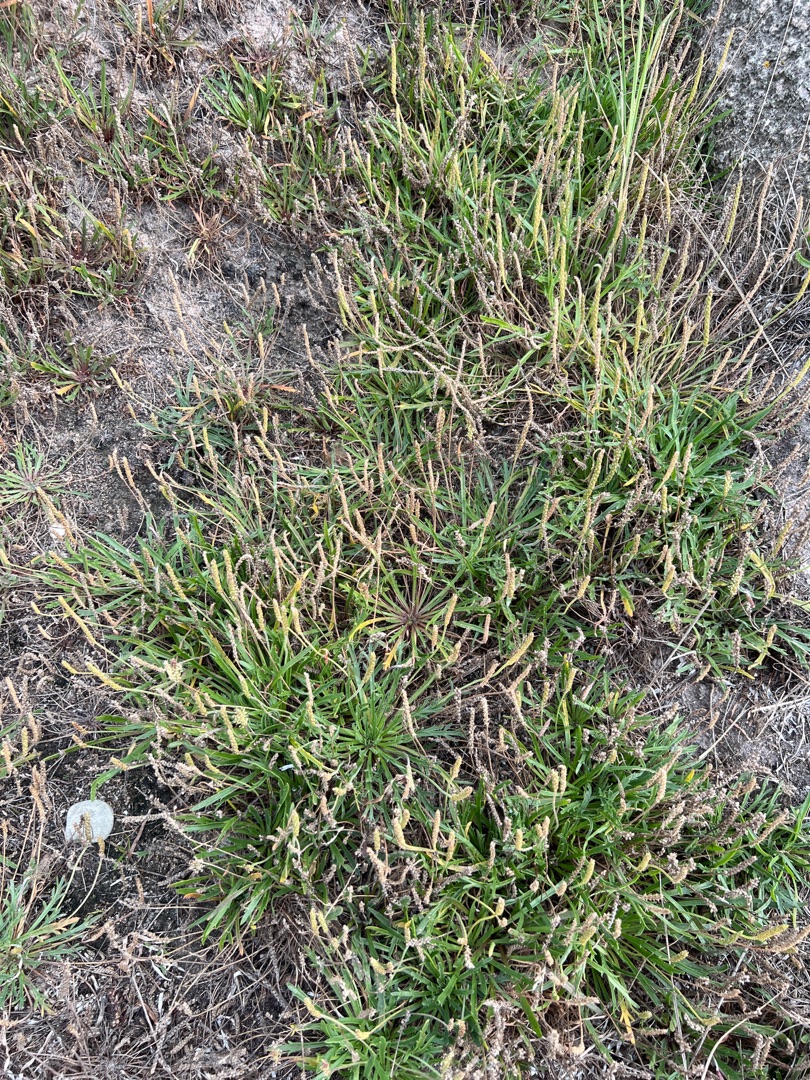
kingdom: Plantae
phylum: Tracheophyta
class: Magnoliopsida
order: Lamiales
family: Plantaginaceae
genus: Plantago
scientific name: Plantago maritima
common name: Strand-vejbred
